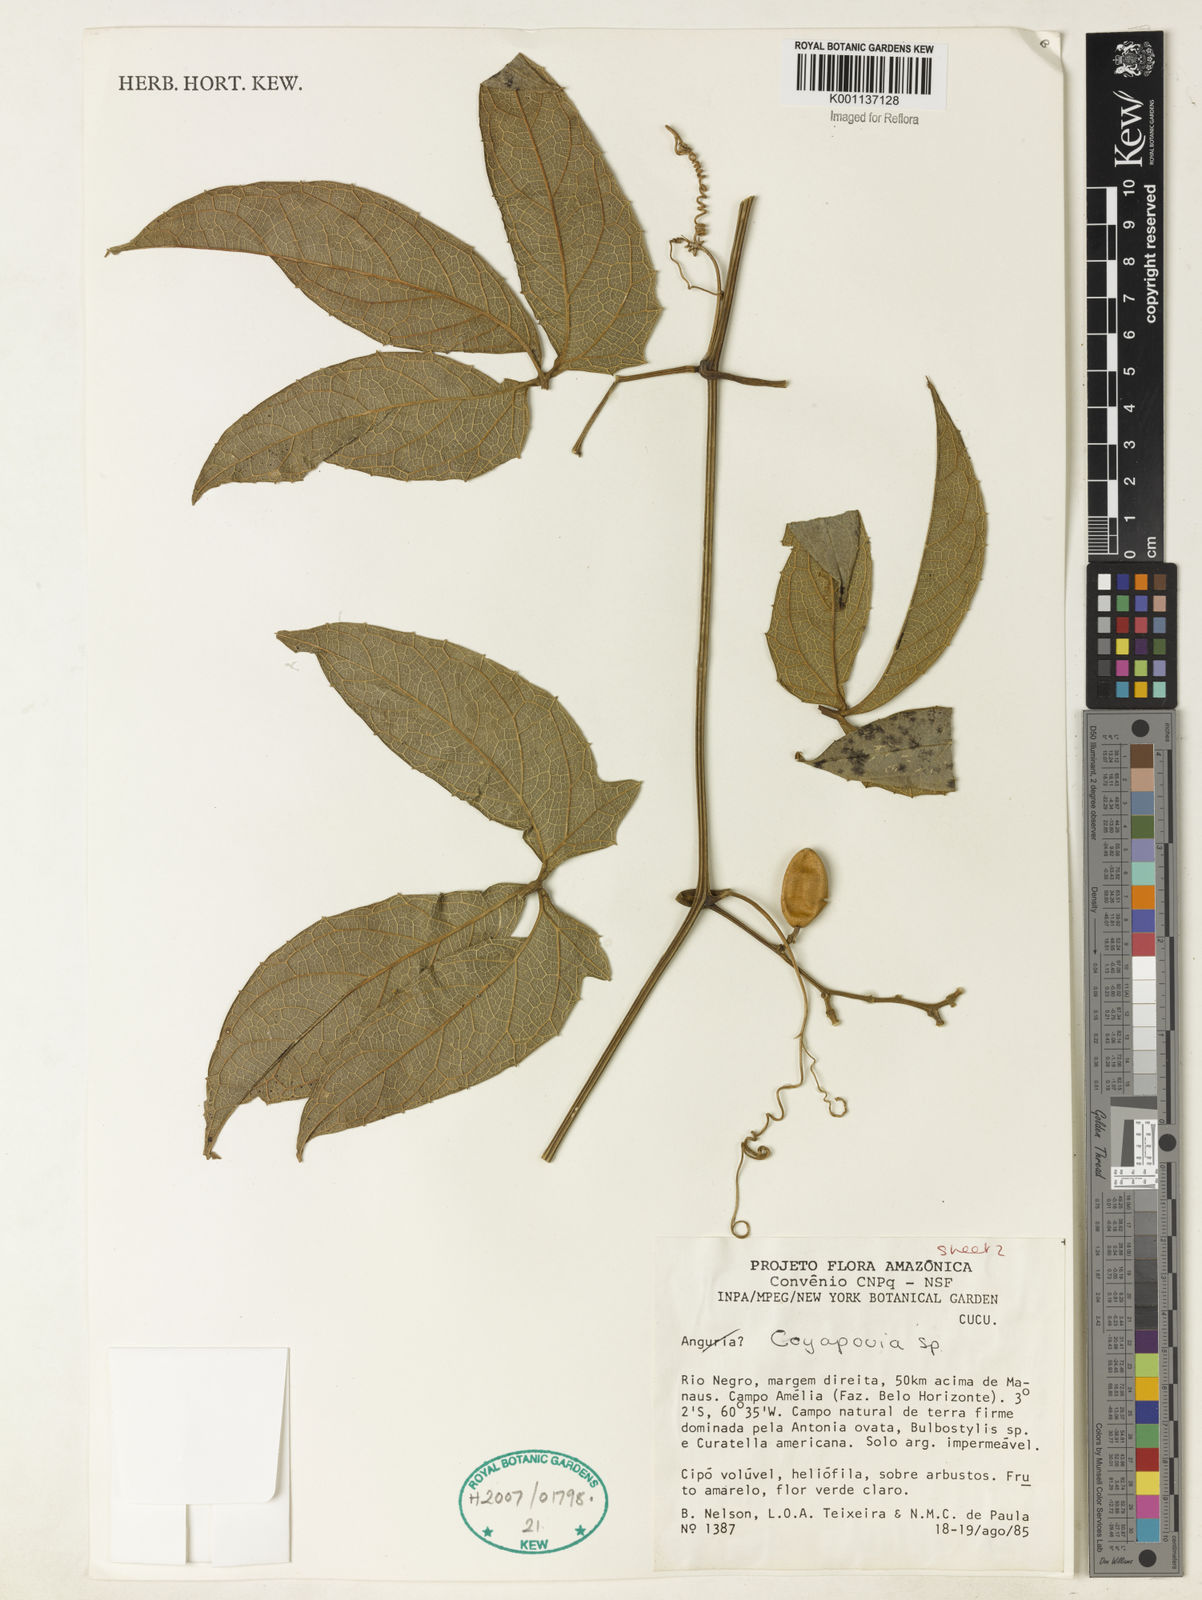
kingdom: Plantae
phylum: Tracheophyta
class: Magnoliopsida
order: Cucurbitales
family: Cucurbitaceae
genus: Cayaponia
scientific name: Cayaponia
